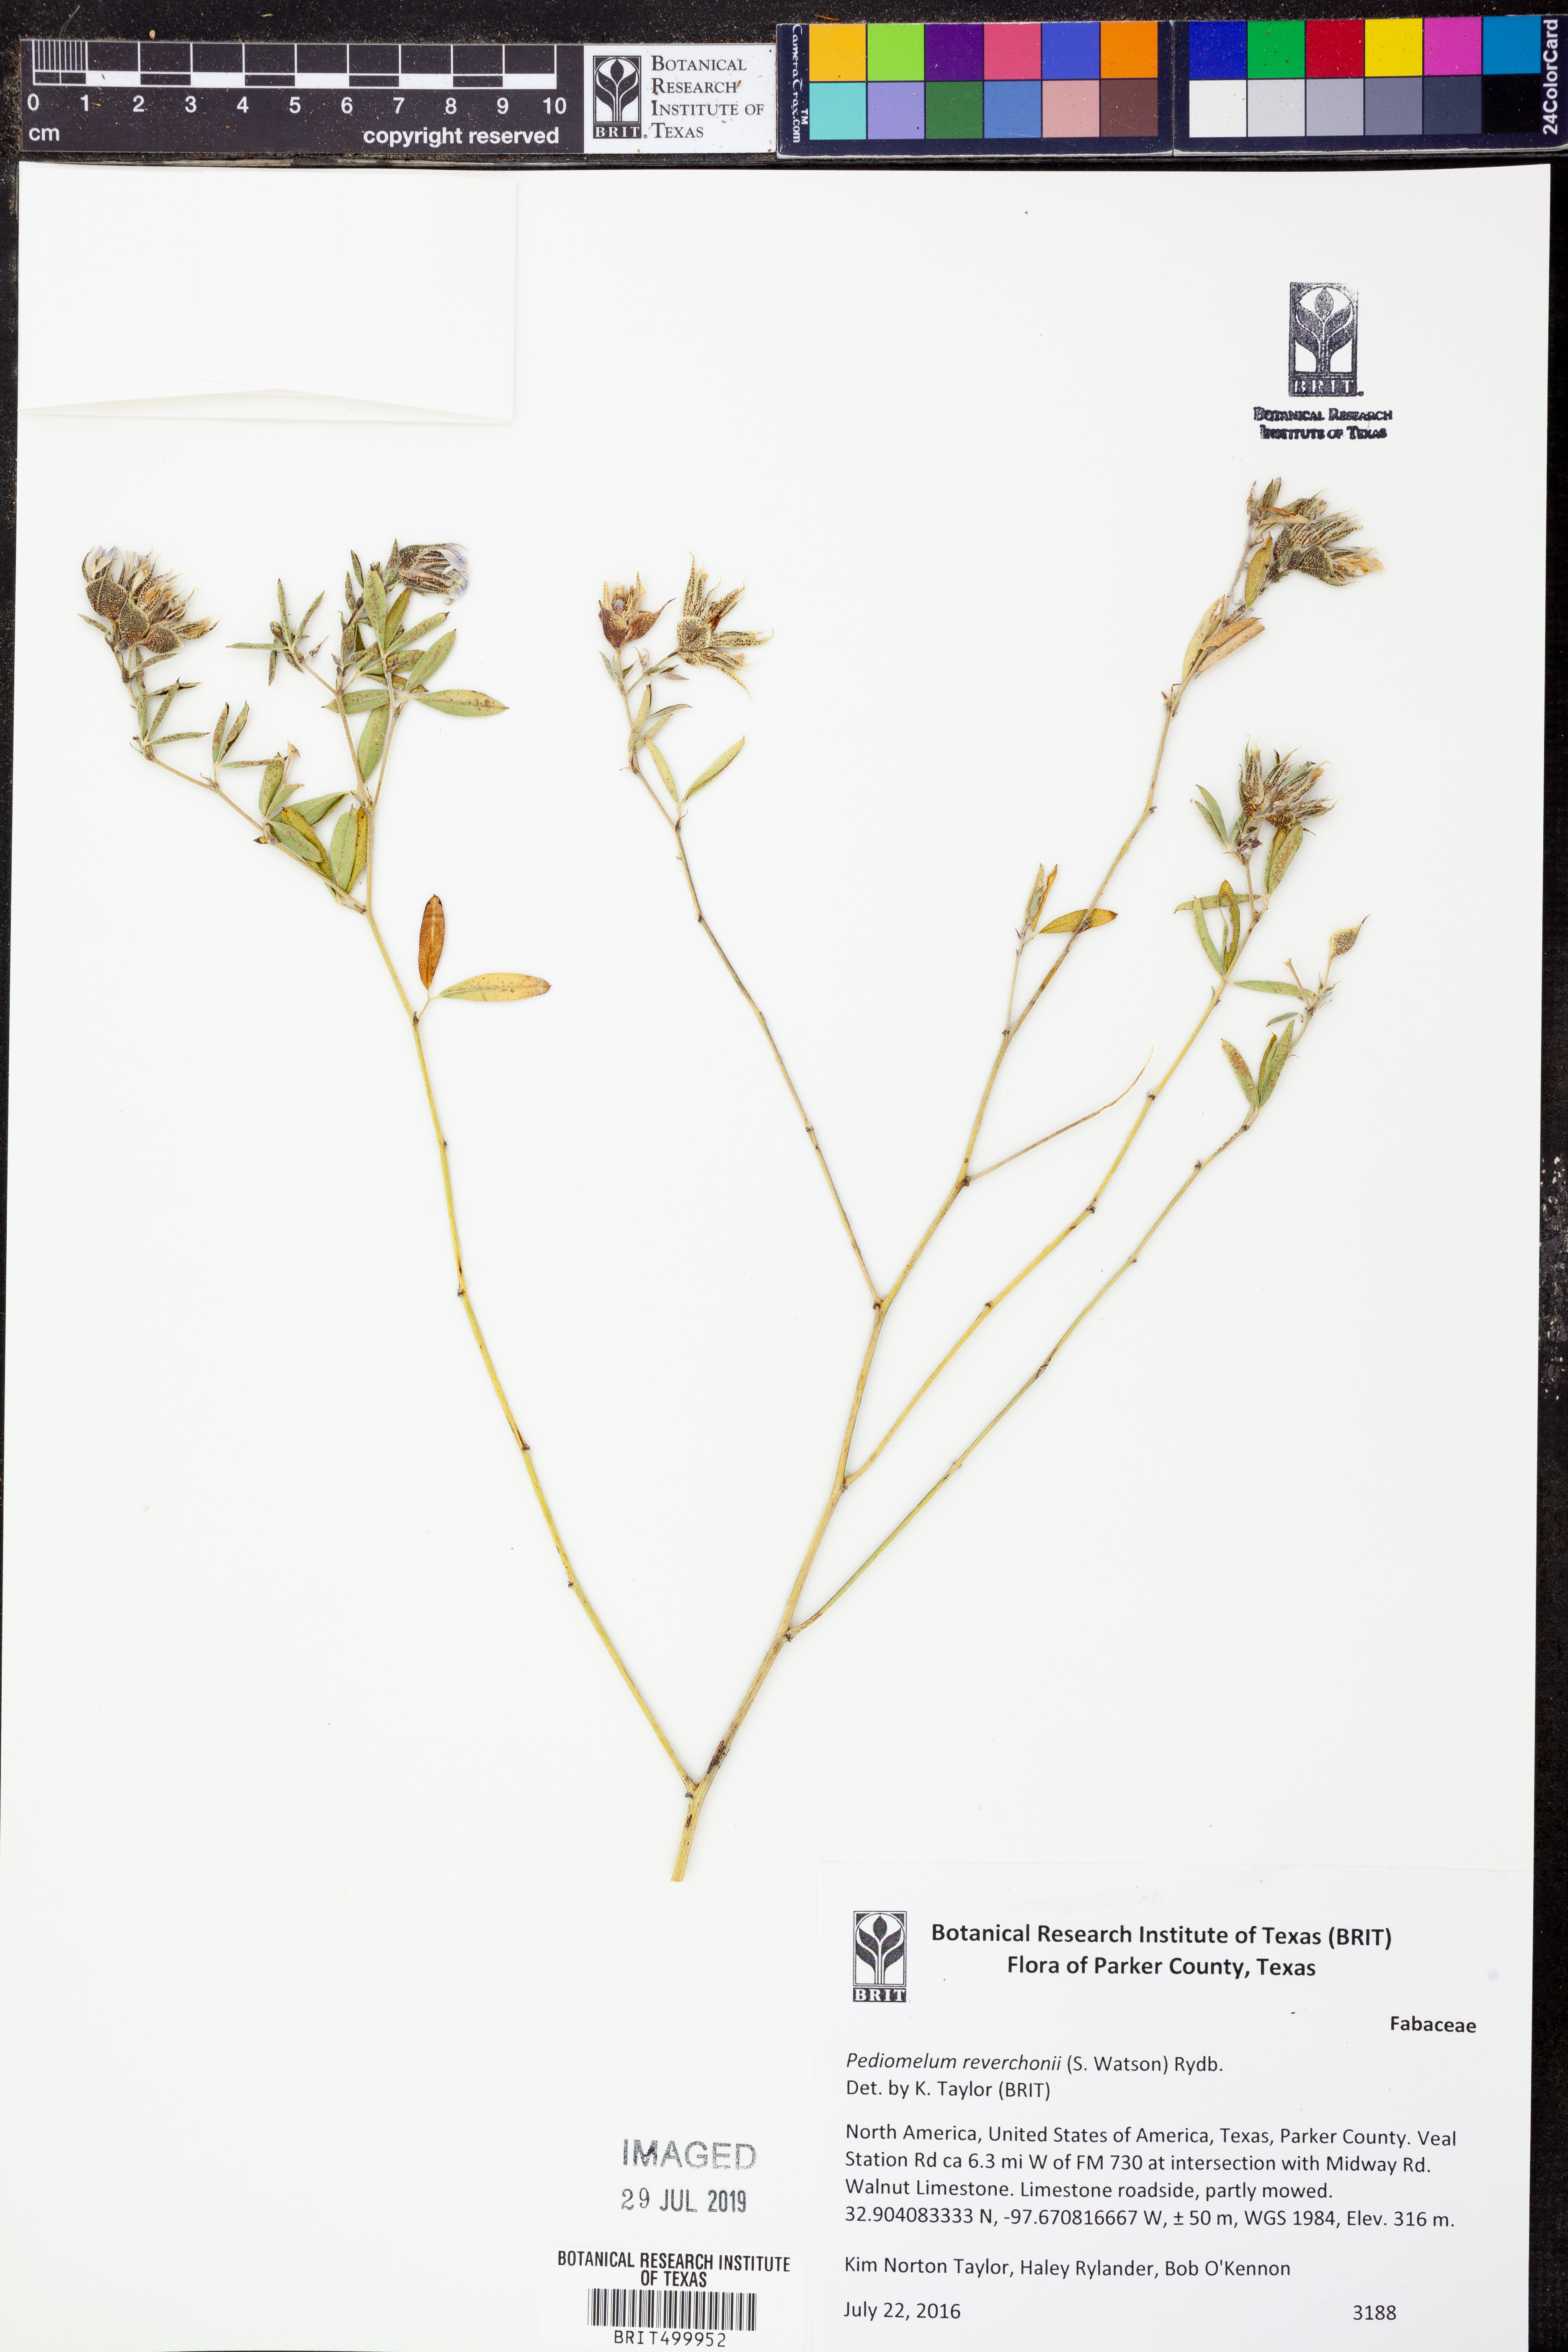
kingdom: Plantae
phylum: Tracheophyta
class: Magnoliopsida
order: Fabales
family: Fabaceae
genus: Pediomelum
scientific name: Pediomelum reverchonii
